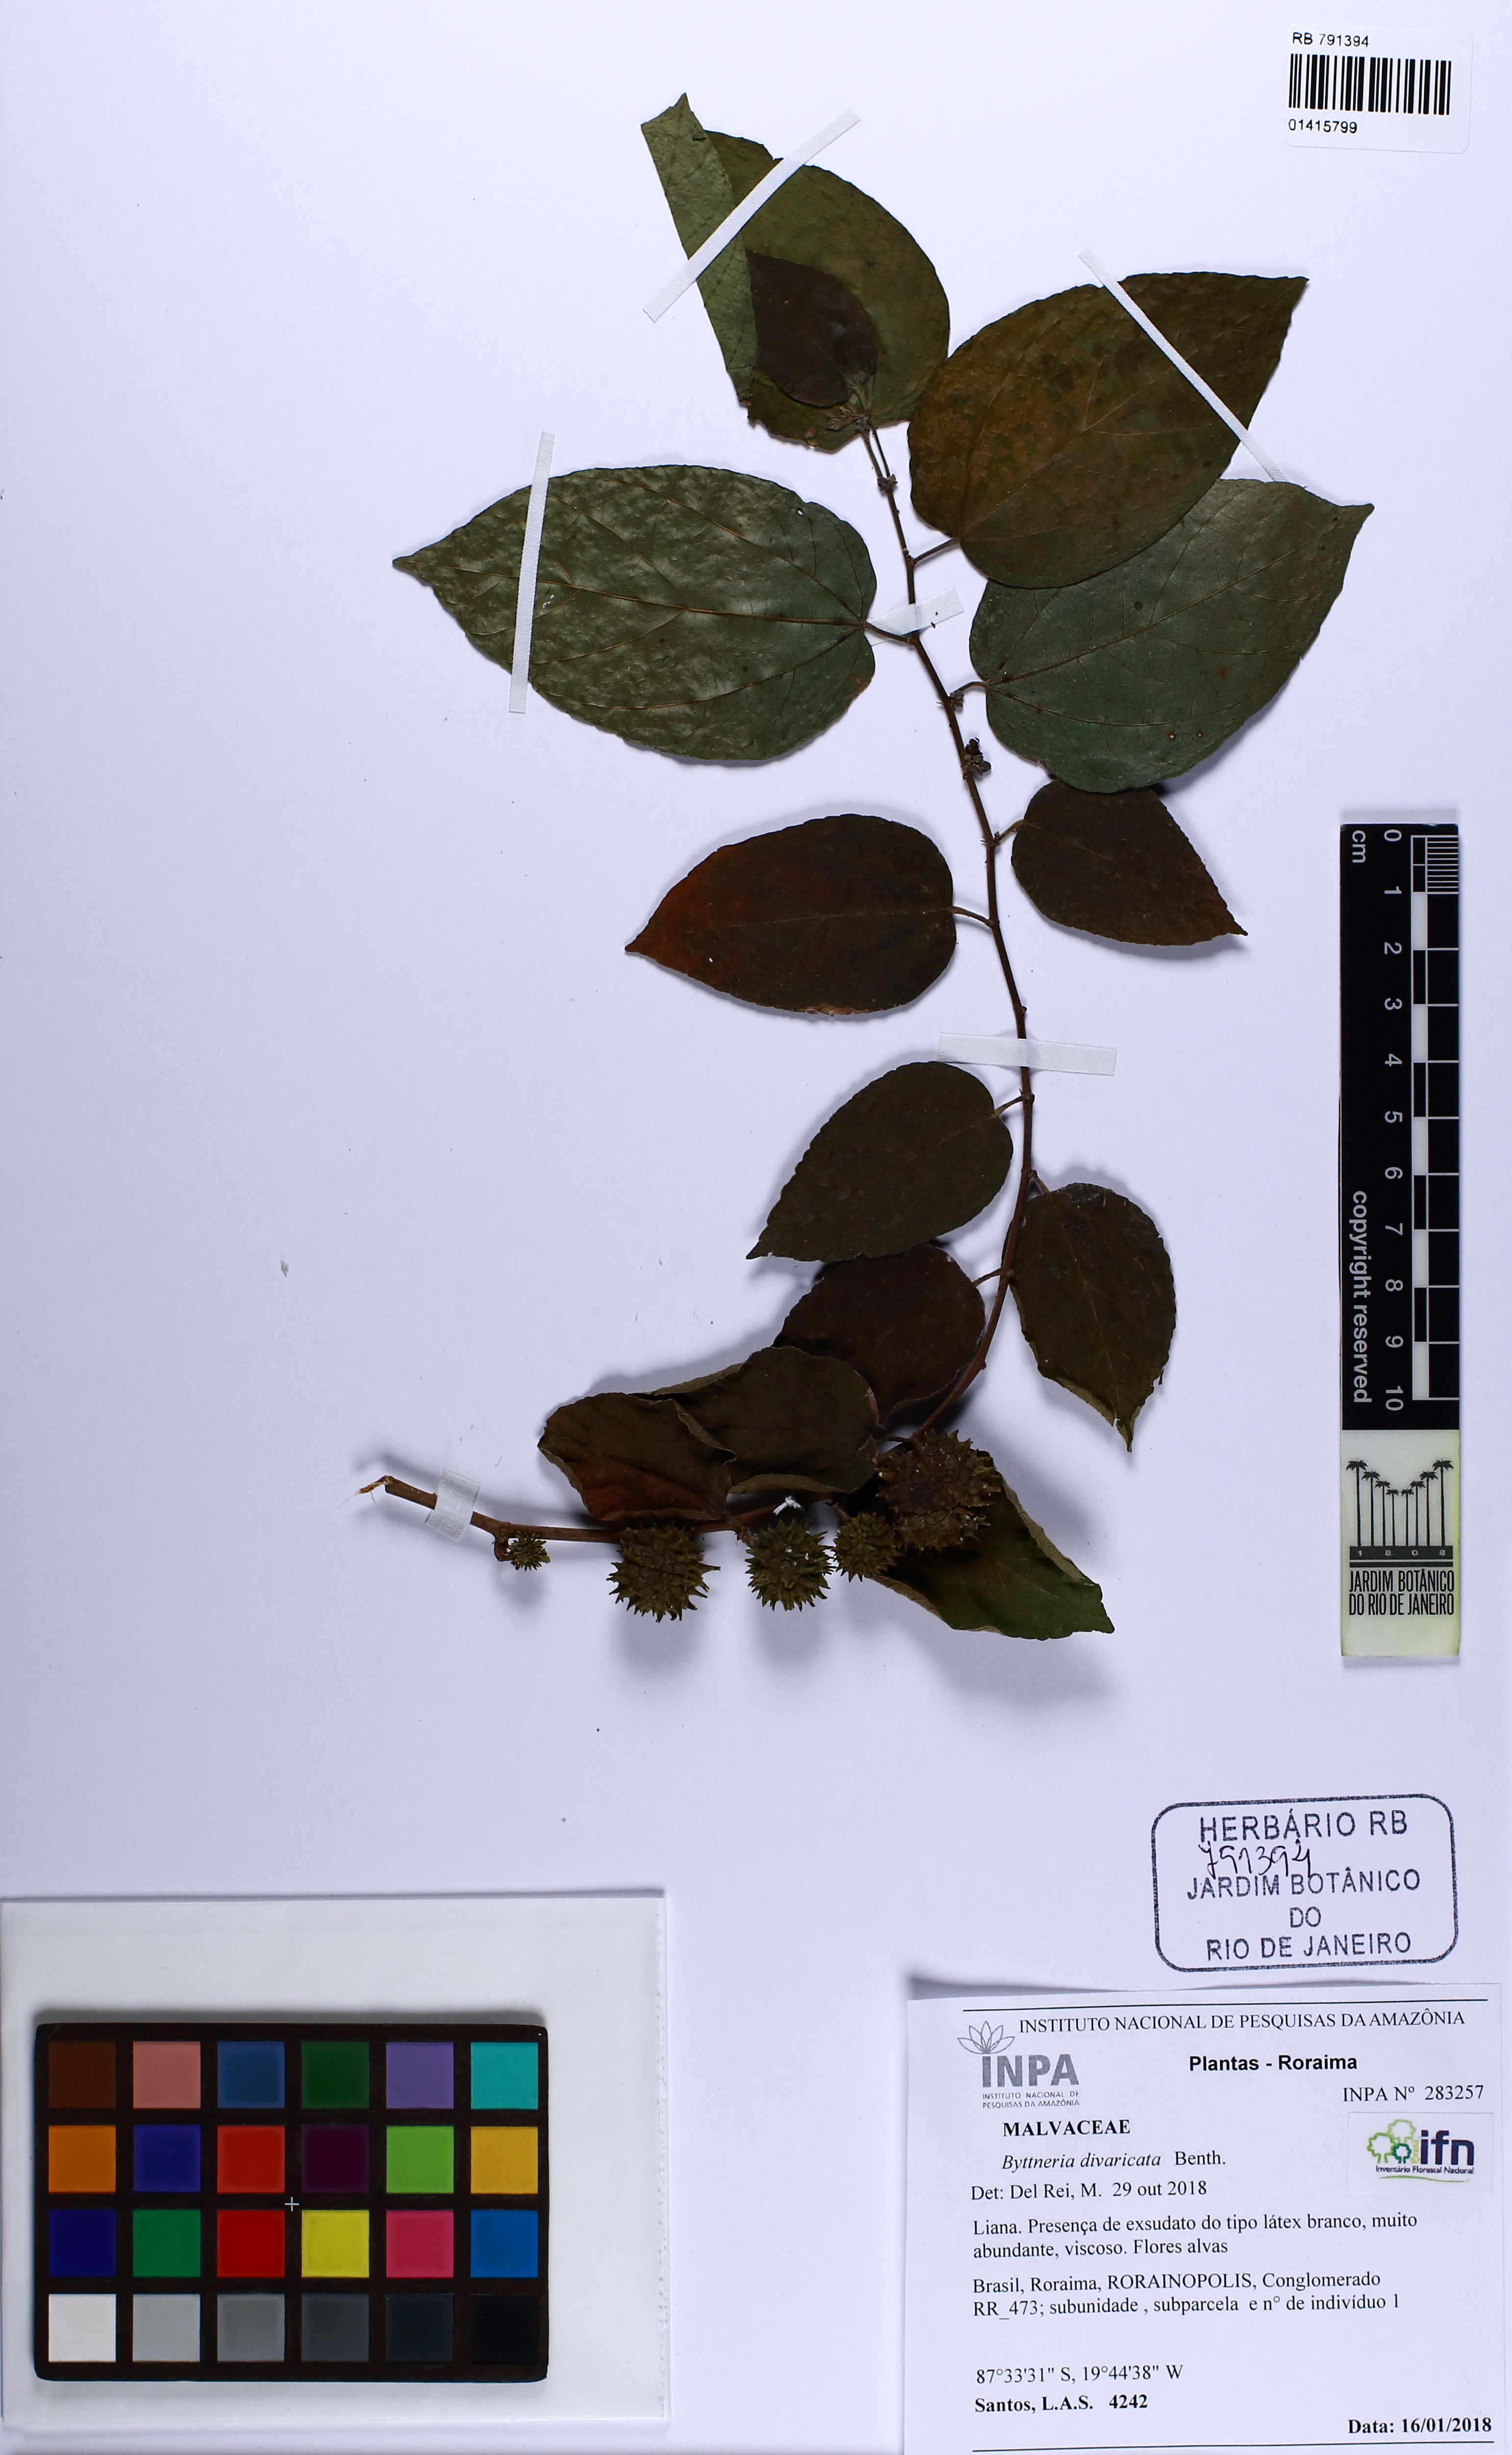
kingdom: Plantae
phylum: Tracheophyta
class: Magnoliopsida
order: Malvales
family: Malvaceae
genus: Byttneria
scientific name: Byttneria divaricata
